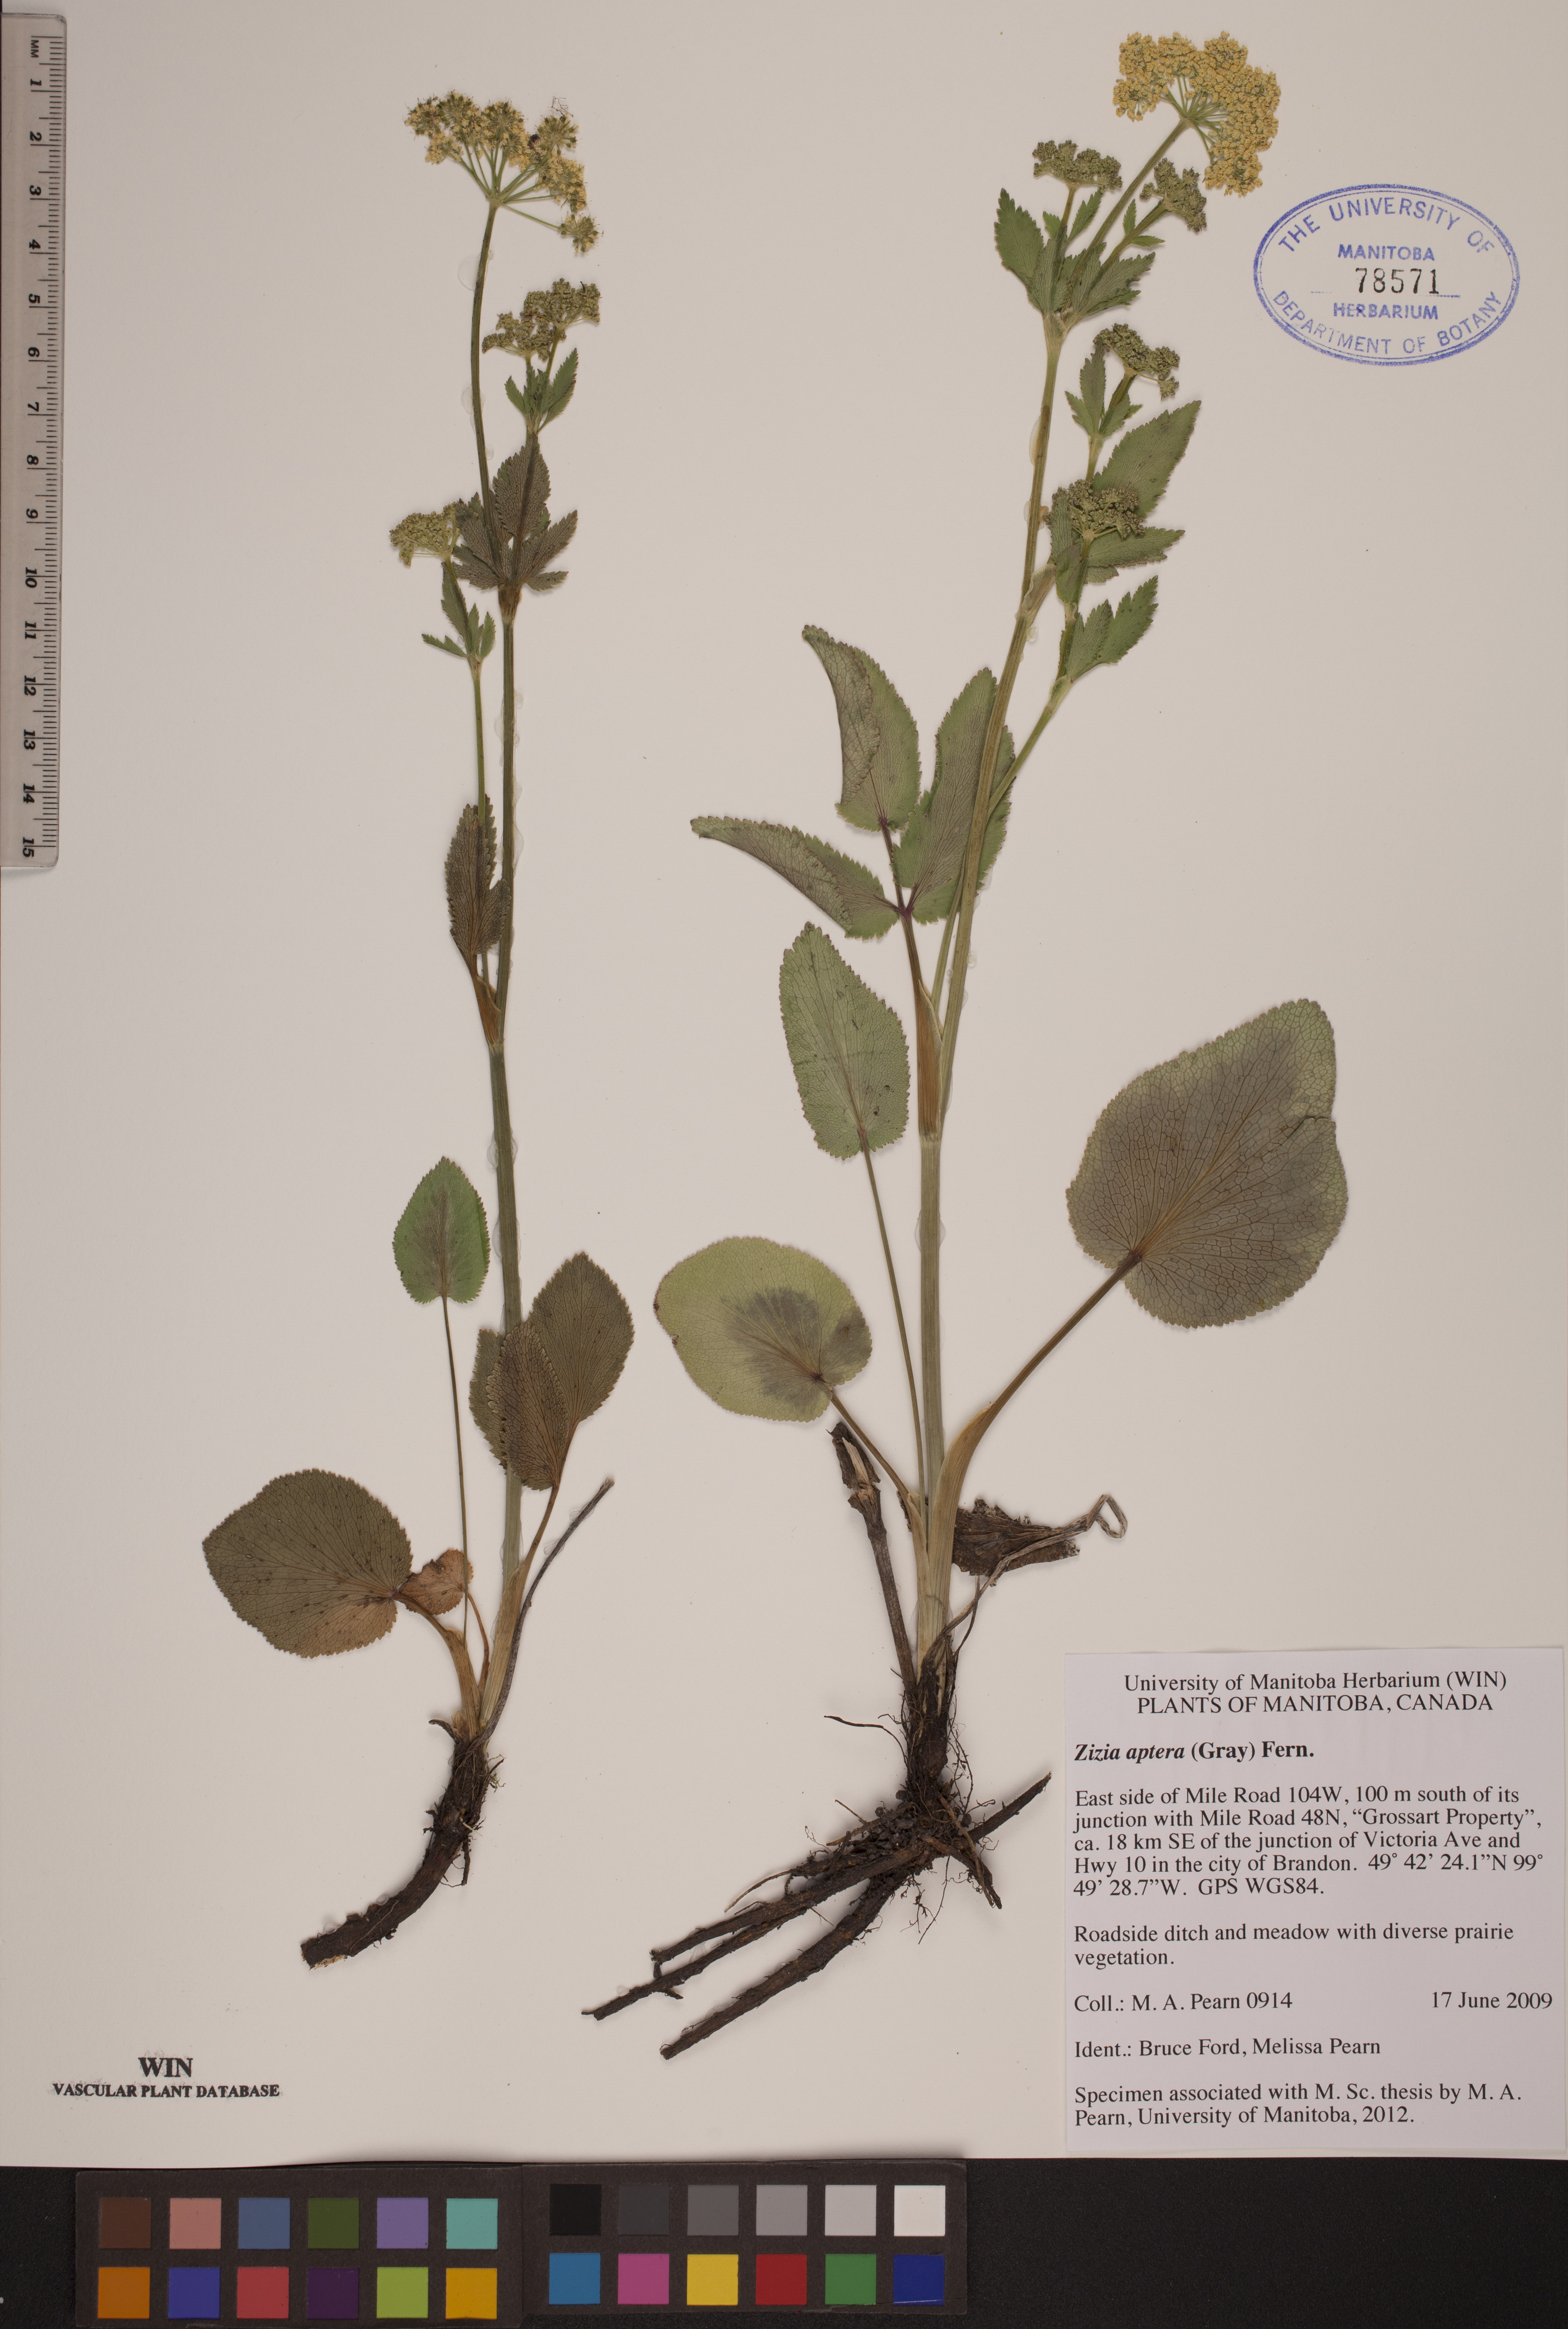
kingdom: Plantae
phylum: Tracheophyta
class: Magnoliopsida
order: Apiales
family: Apiaceae
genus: Zizia
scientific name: Zizia aptera
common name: Heart-leaved alexanders
